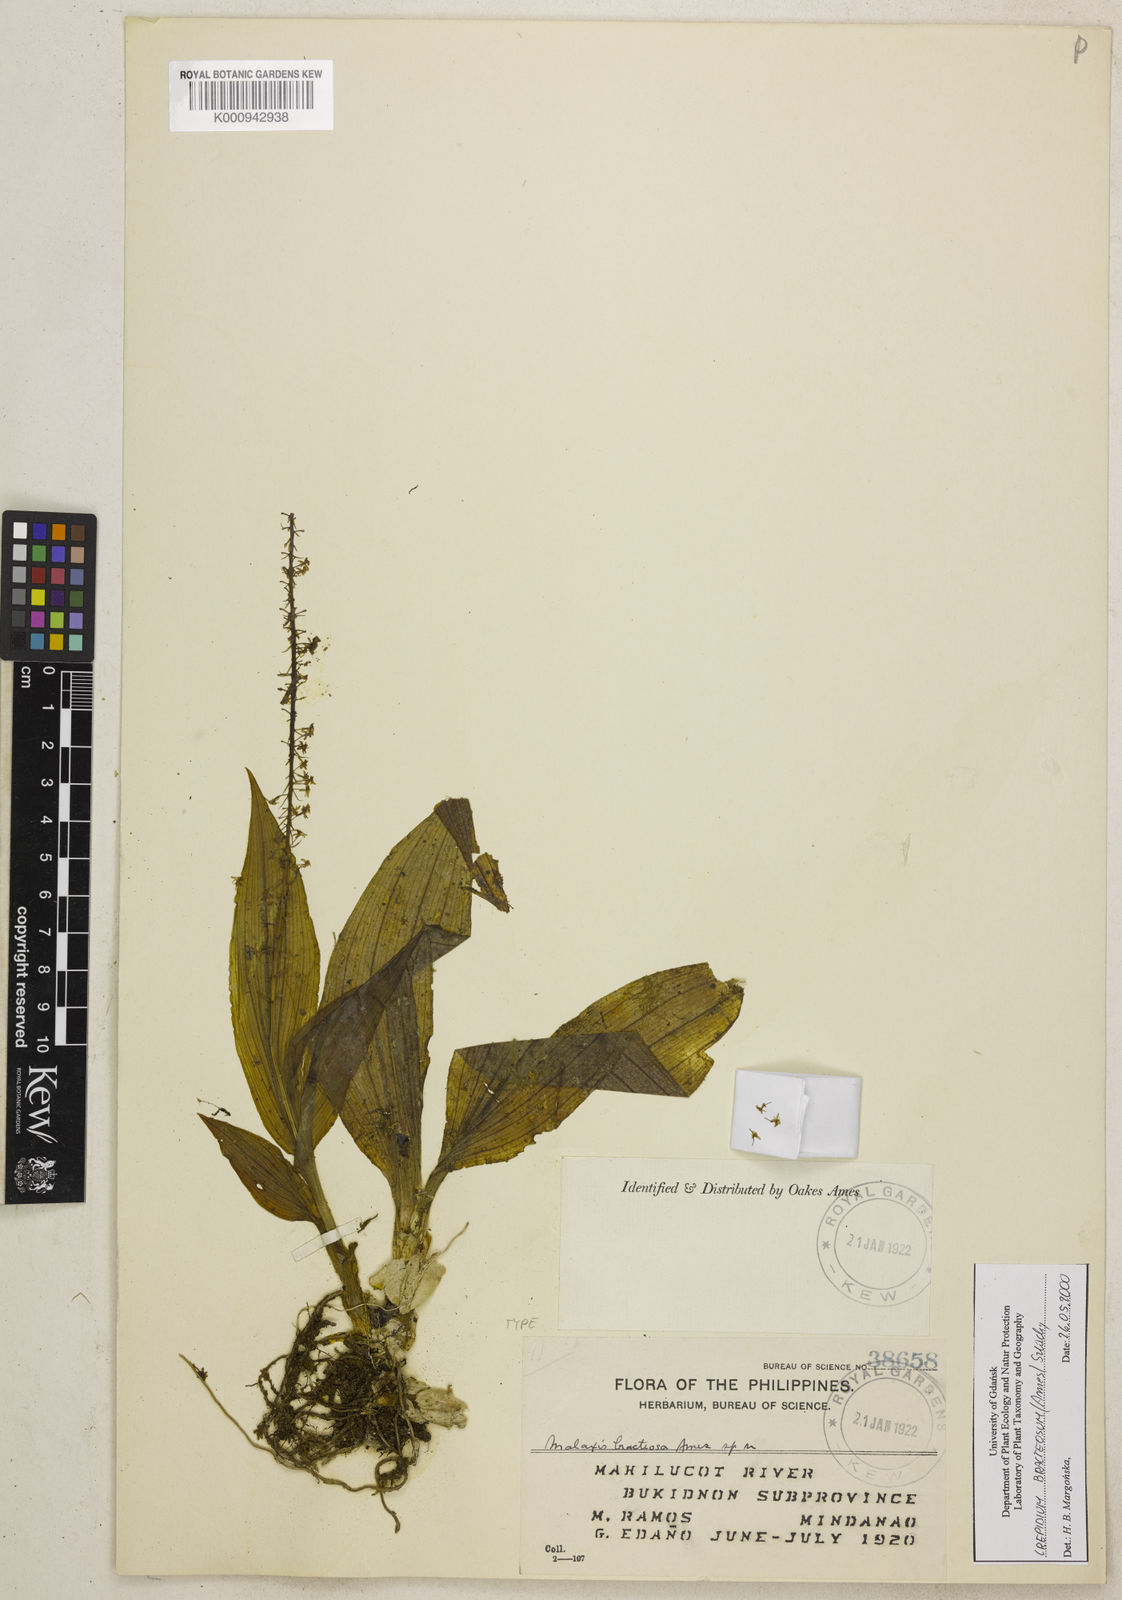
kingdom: Plantae
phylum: Tracheophyta
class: Liliopsida
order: Asparagales
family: Orchidaceae
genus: Crepidium
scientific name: Crepidium bracteosum
